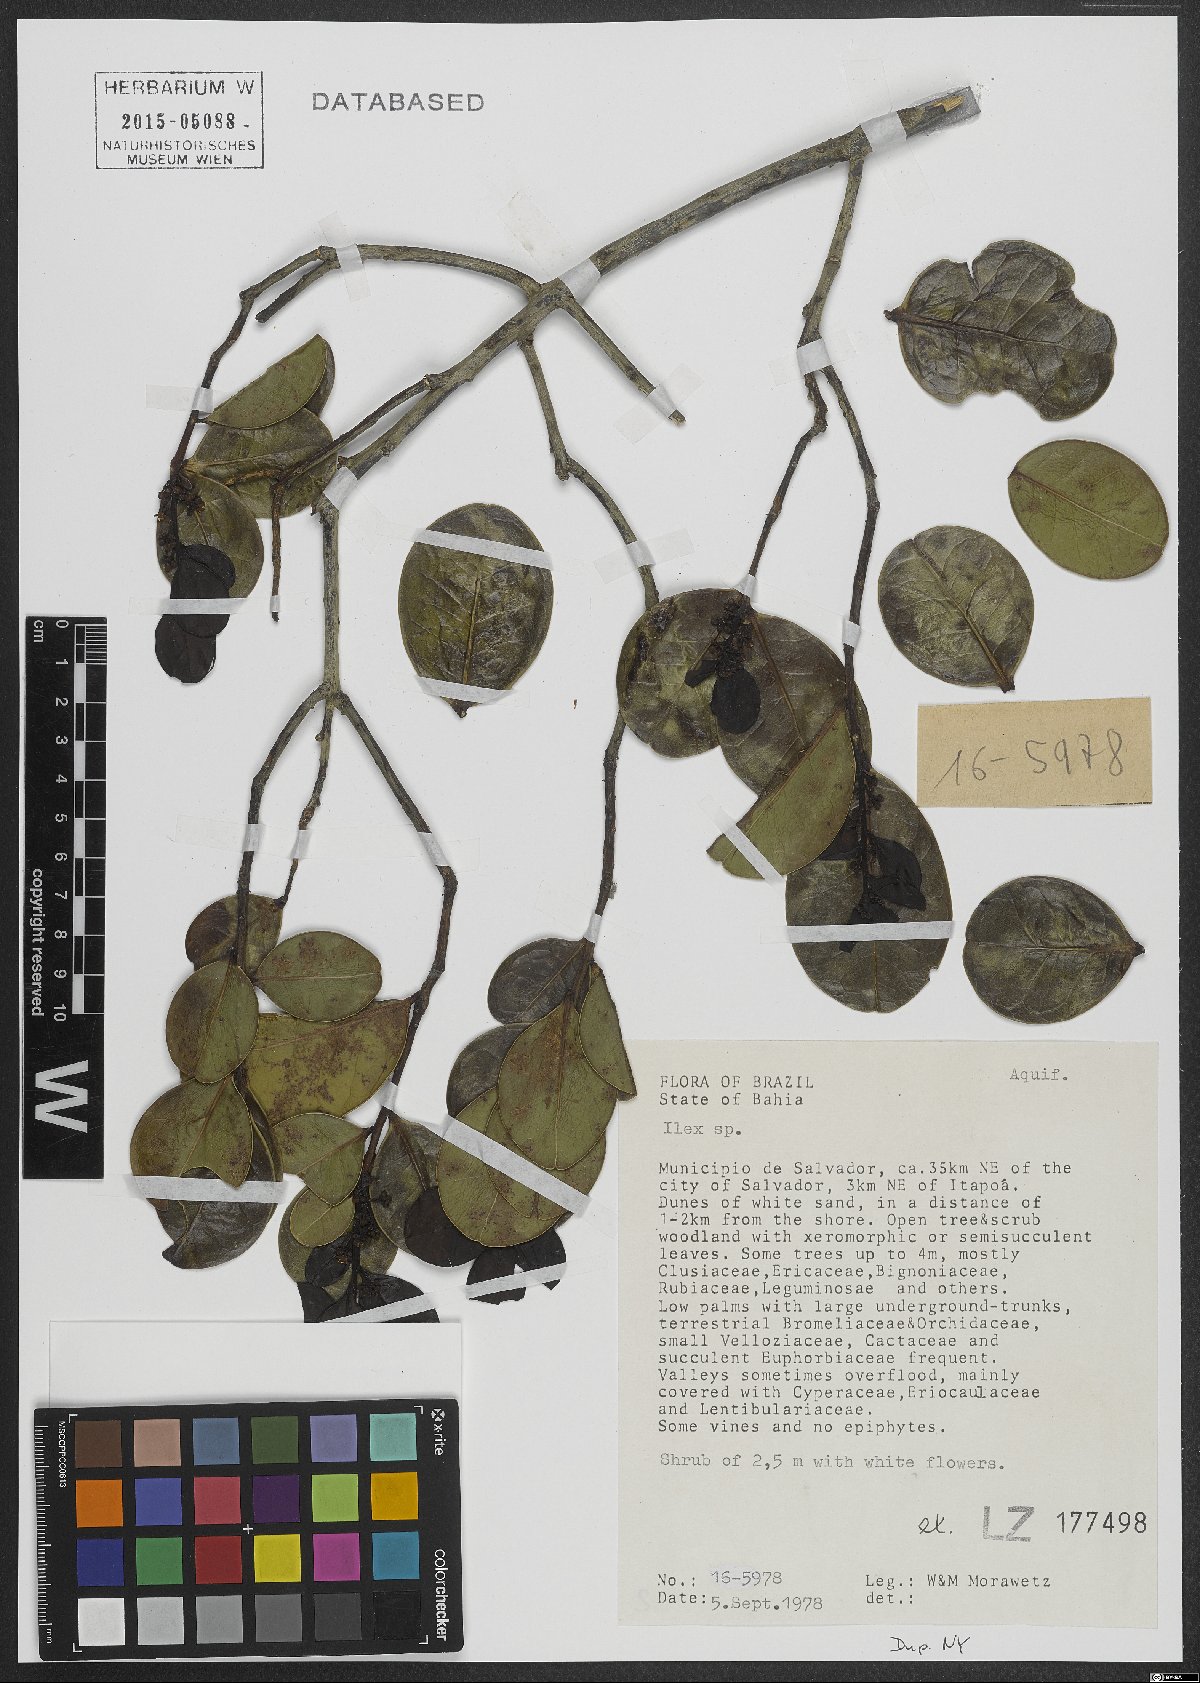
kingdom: Plantae
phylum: Tracheophyta
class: Magnoliopsida
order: Aquifoliales
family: Aquifoliaceae
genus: Ilex
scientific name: Ilex
